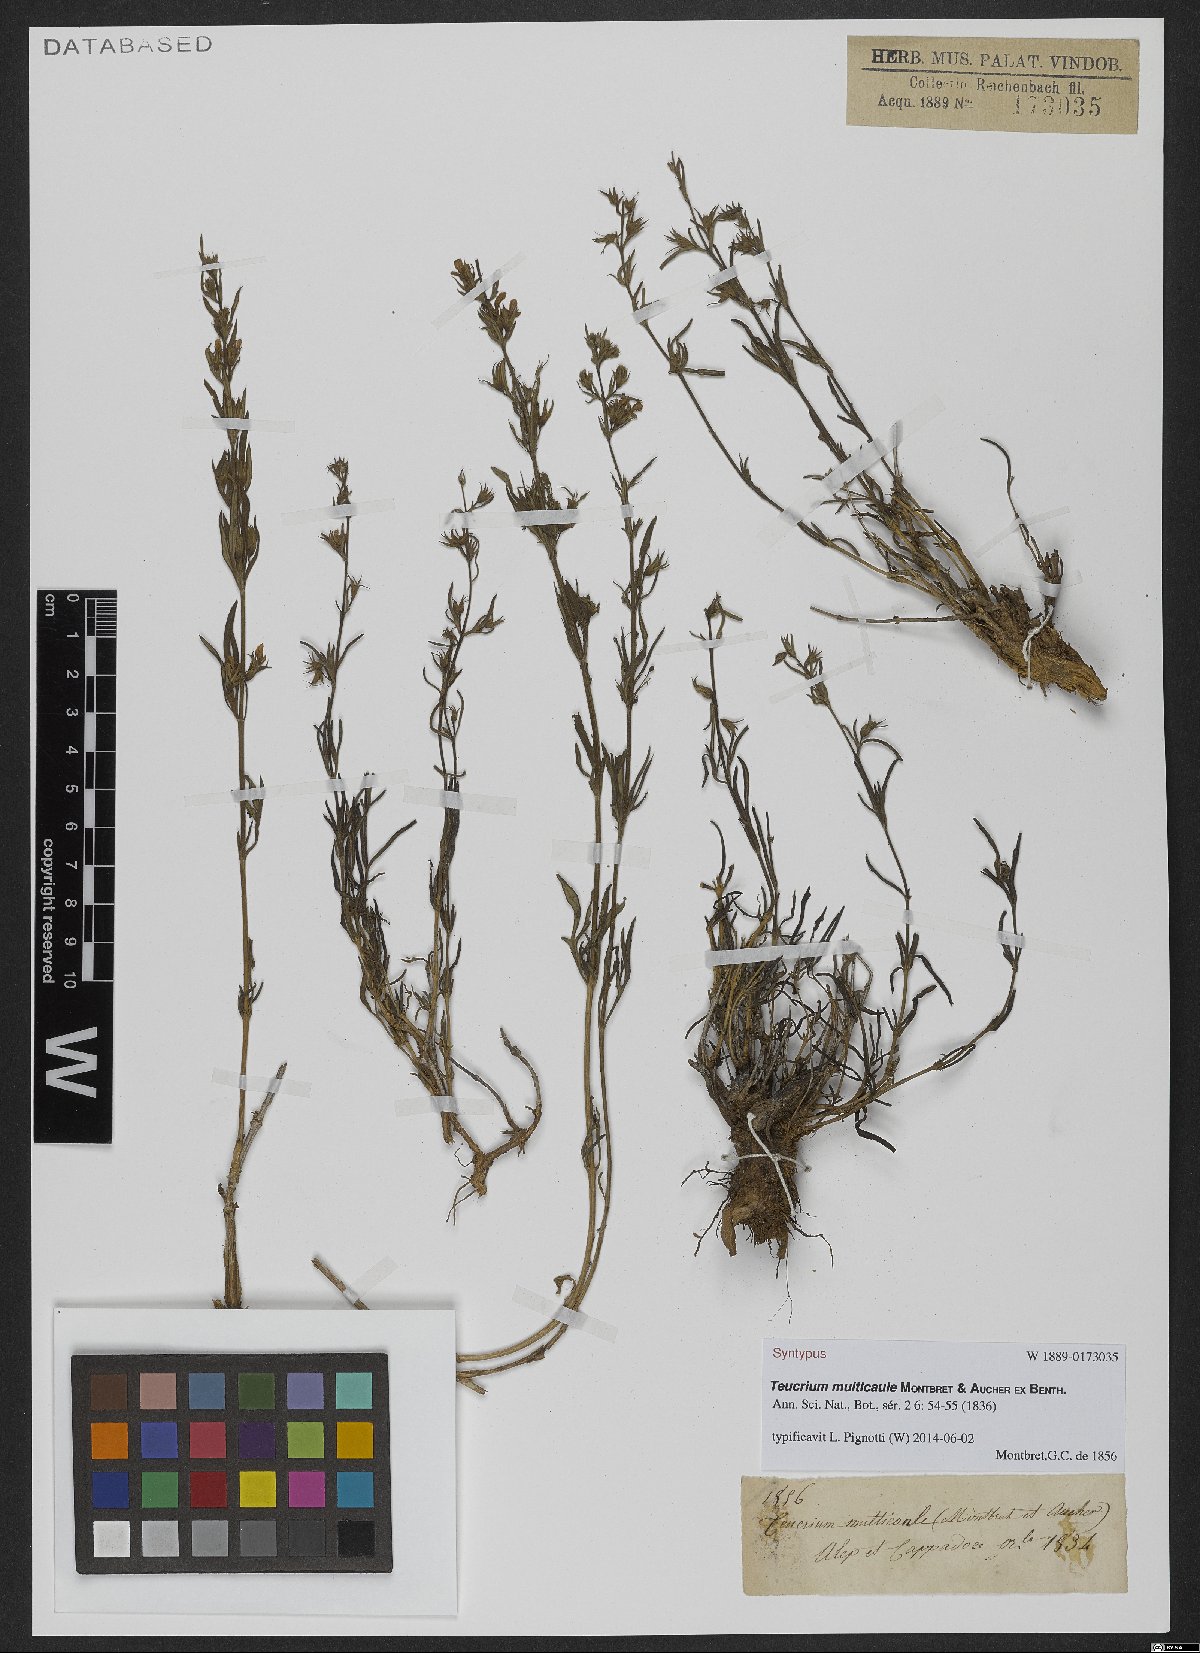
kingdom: Plantae
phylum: Tracheophyta
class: Magnoliopsida
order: Lamiales
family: Lamiaceae
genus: Teucrium
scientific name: Teucrium multicaule
